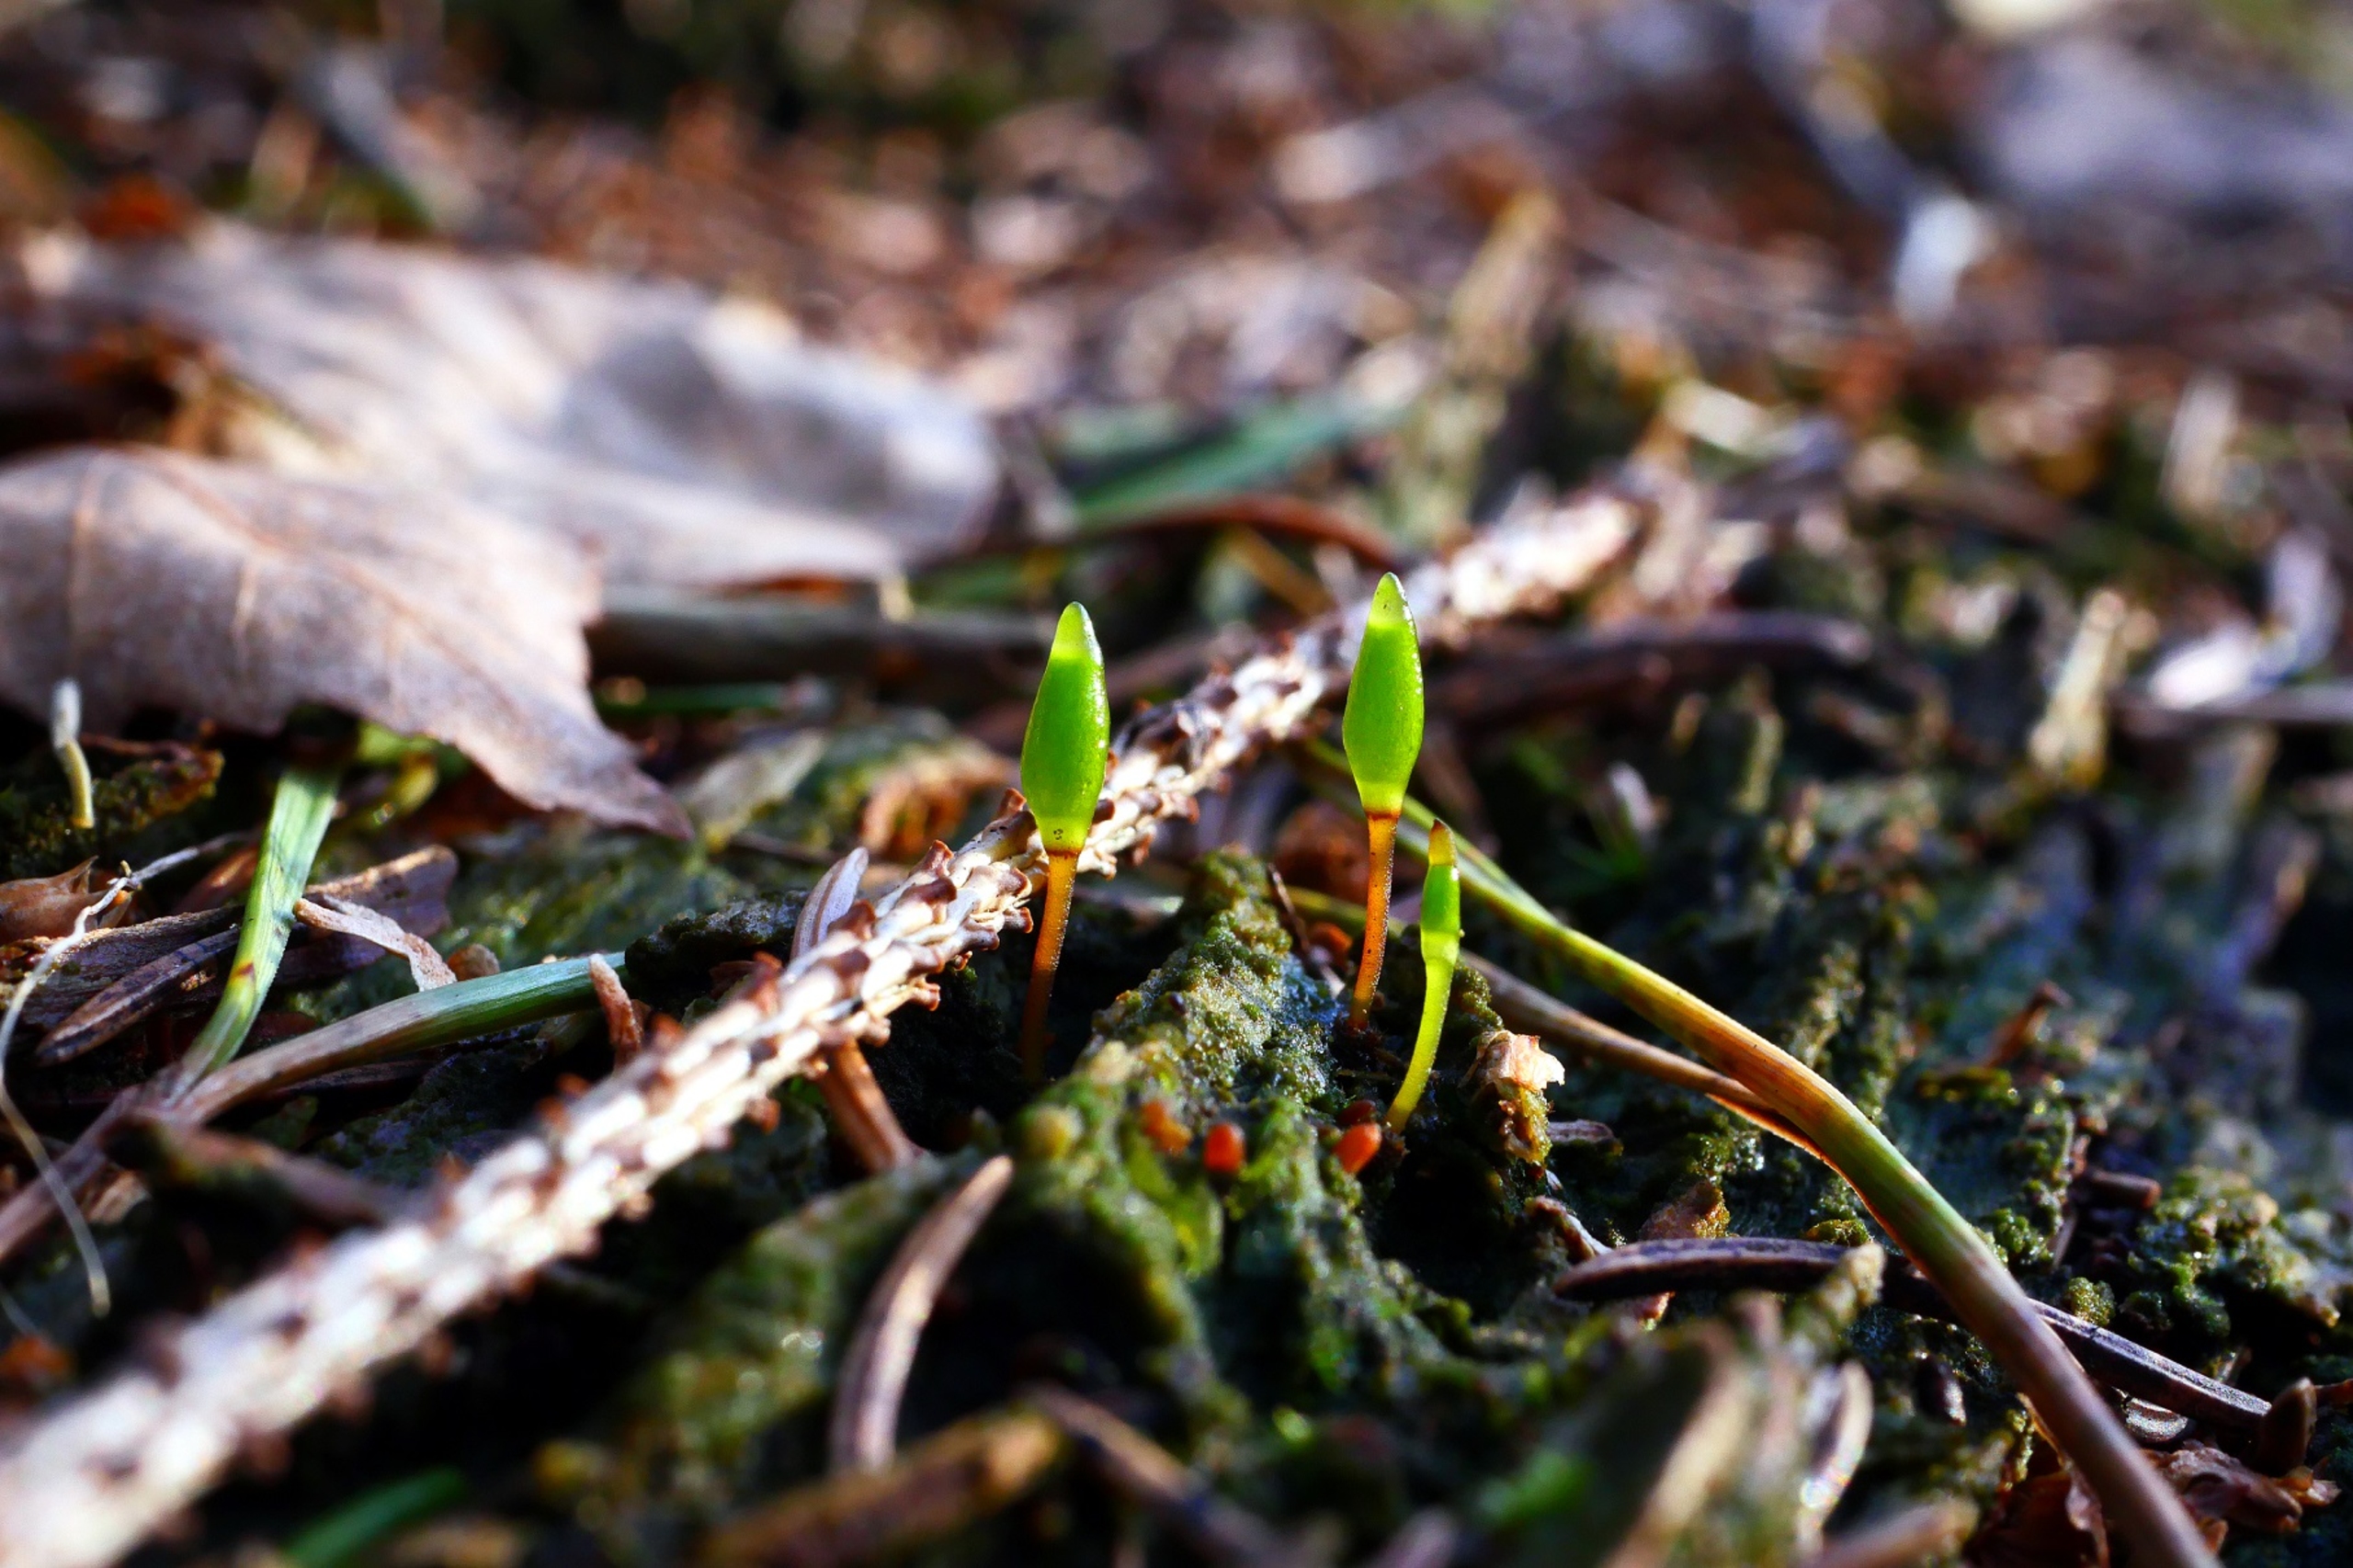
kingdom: Plantae
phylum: Bryophyta
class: Bryopsida
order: Buxbaumiales
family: Buxbaumiaceae
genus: Buxbaumia
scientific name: Buxbaumia viridis
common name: Grøn buxbaumia
